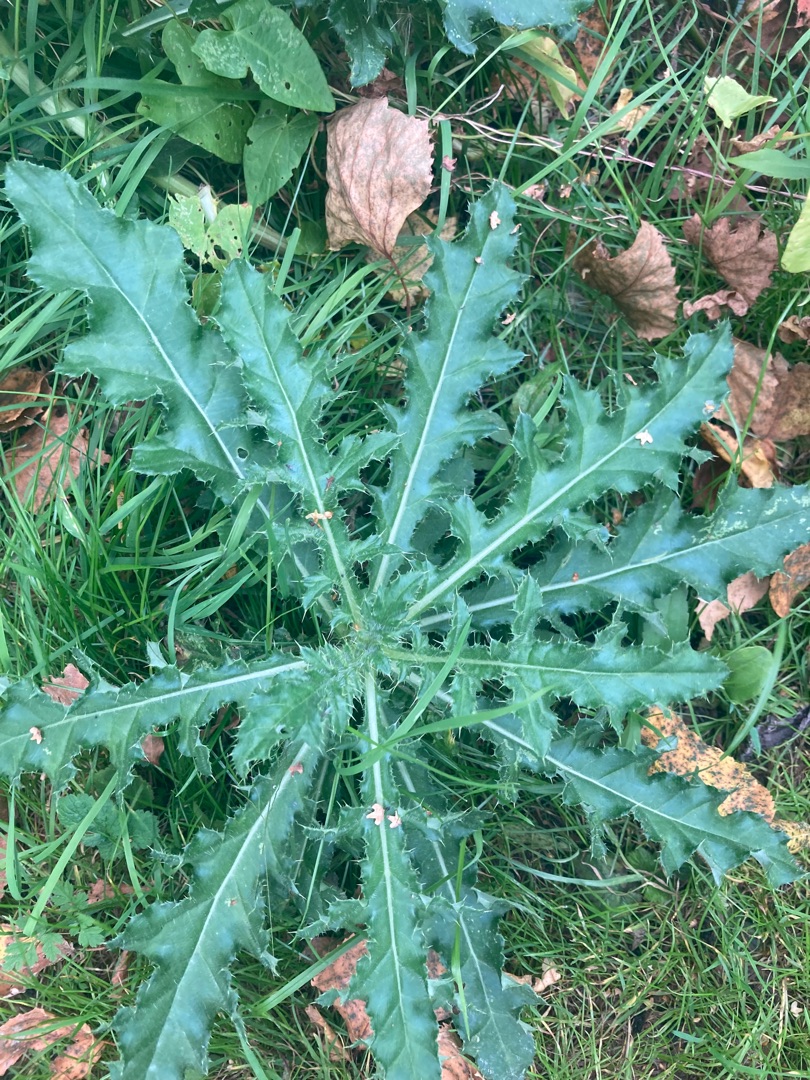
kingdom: Plantae
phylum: Tracheophyta
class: Magnoliopsida
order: Asterales
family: Asteraceae
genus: Cirsium
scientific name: Cirsium arvense
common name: Ager-tidsel
